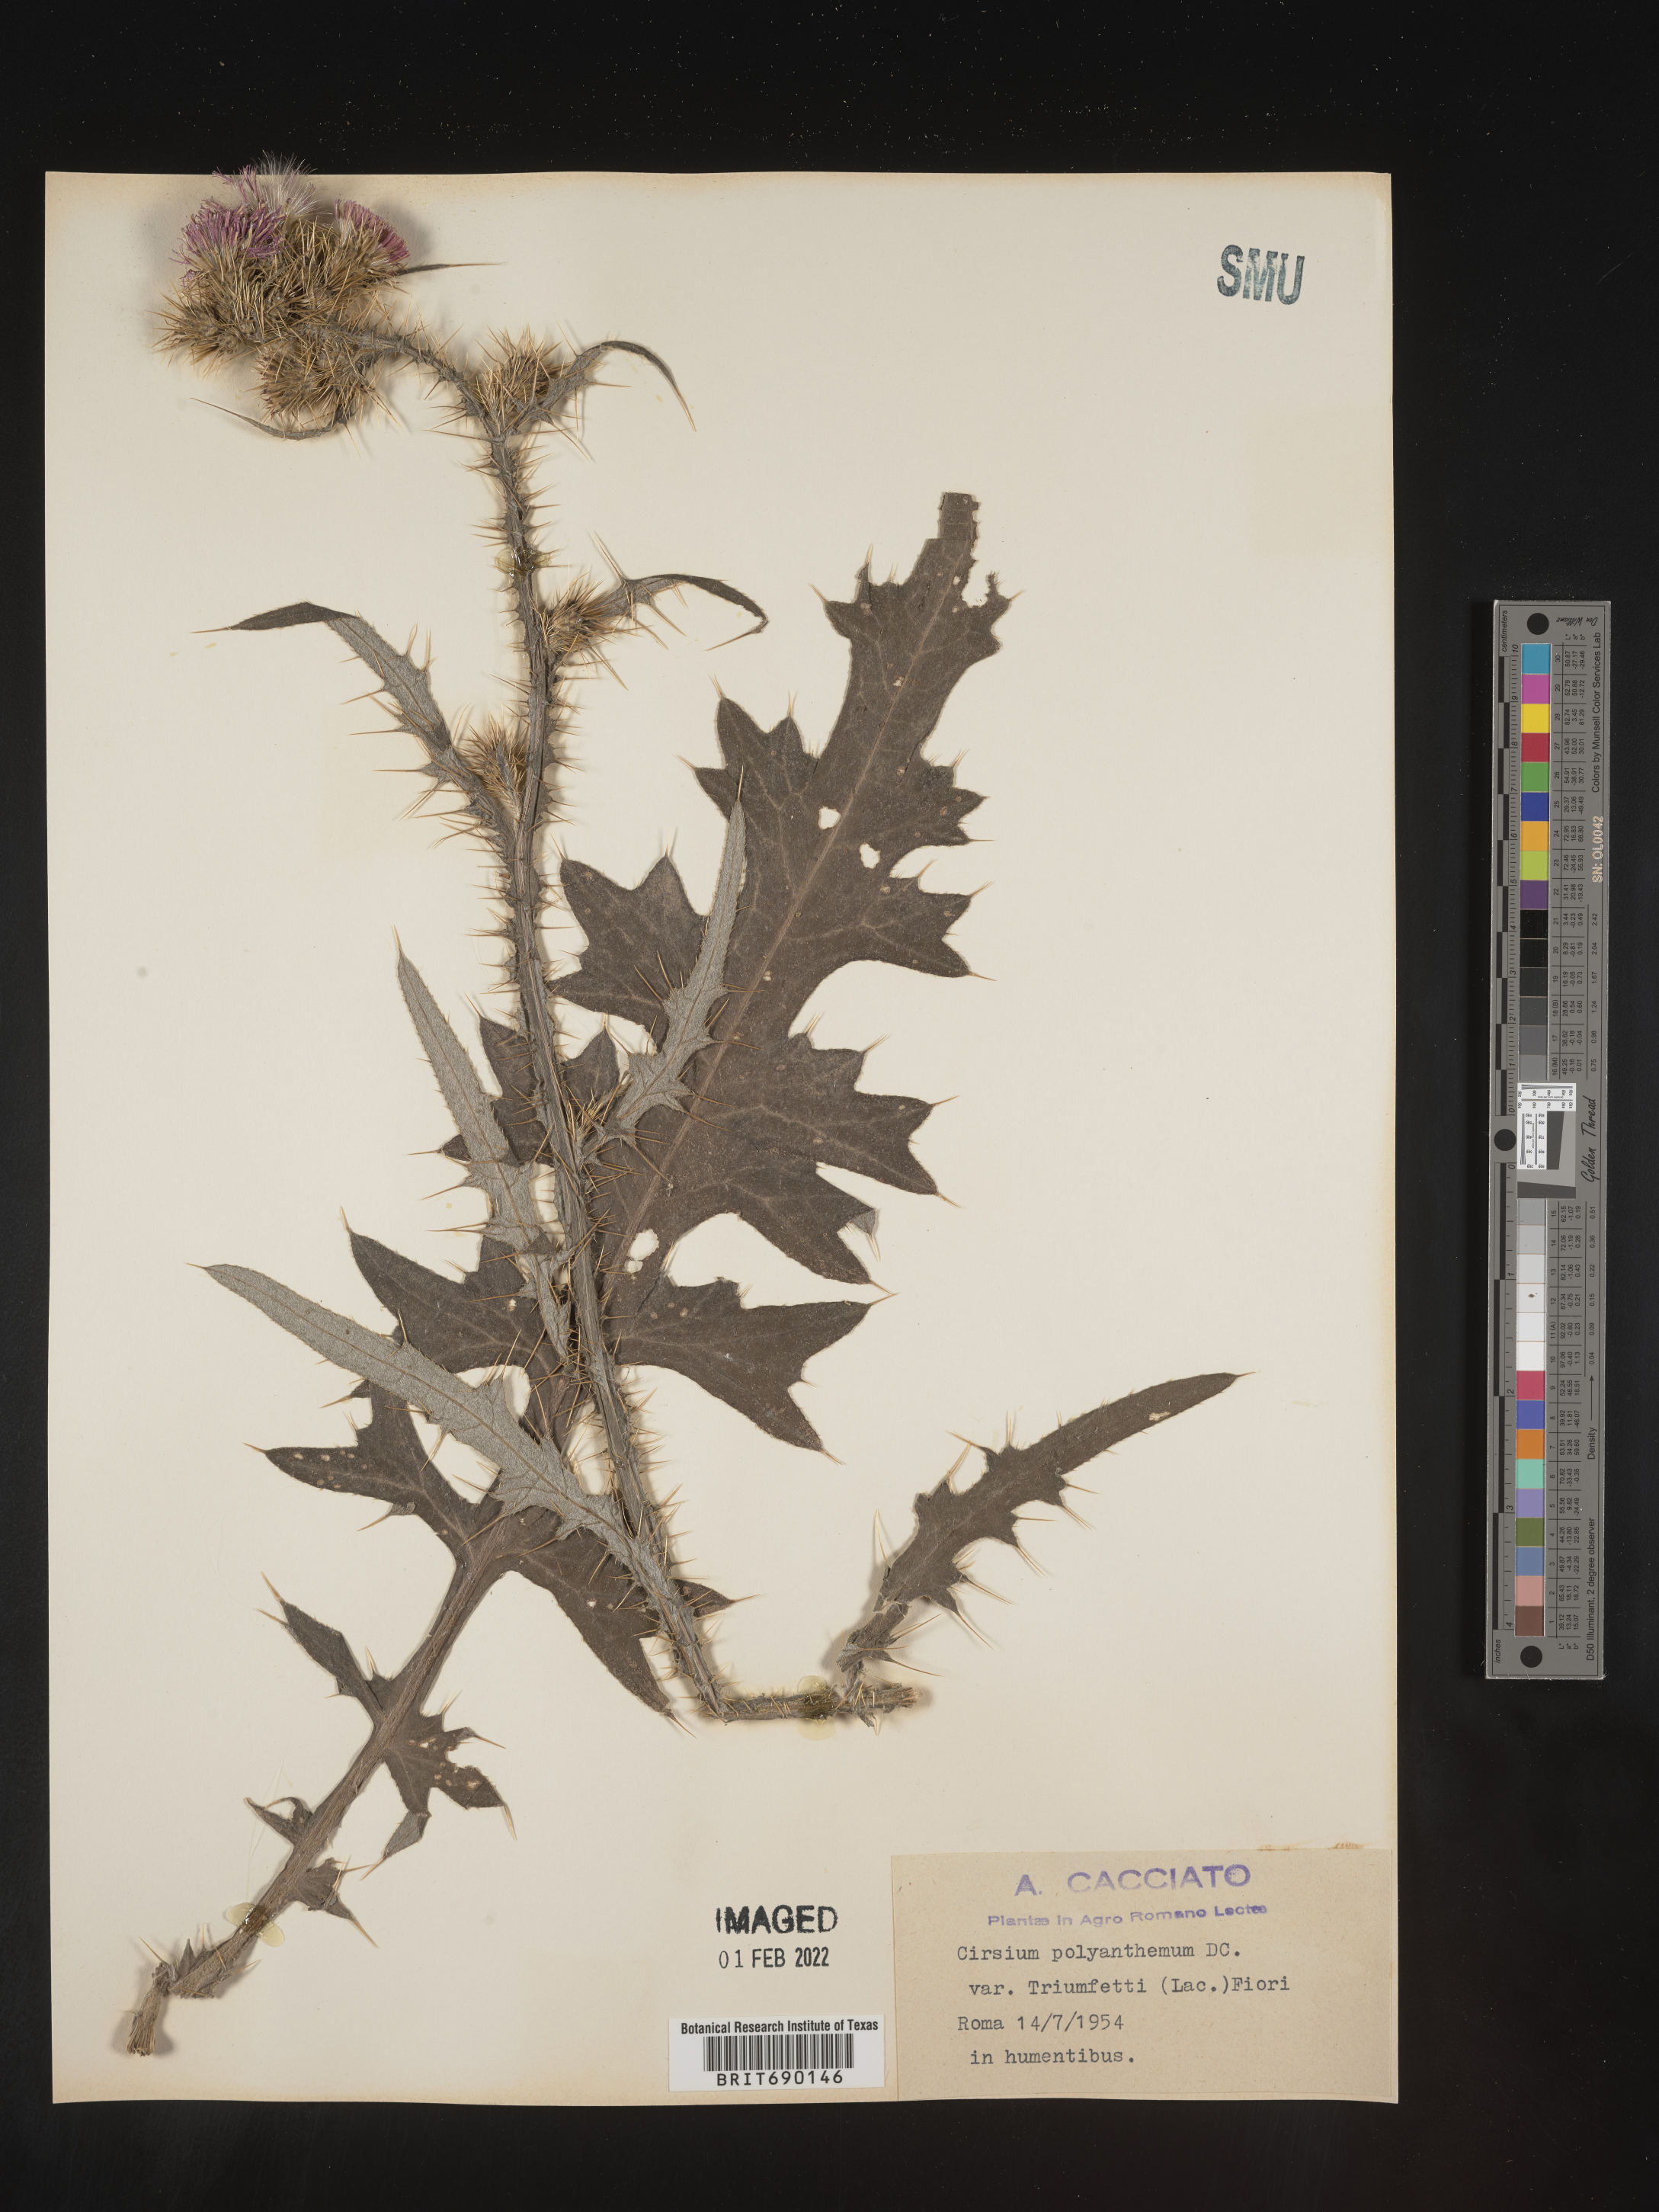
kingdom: Plantae
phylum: Tracheophyta
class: Magnoliopsida
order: Asterales
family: Asteraceae
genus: Cirsium
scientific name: Cirsium
